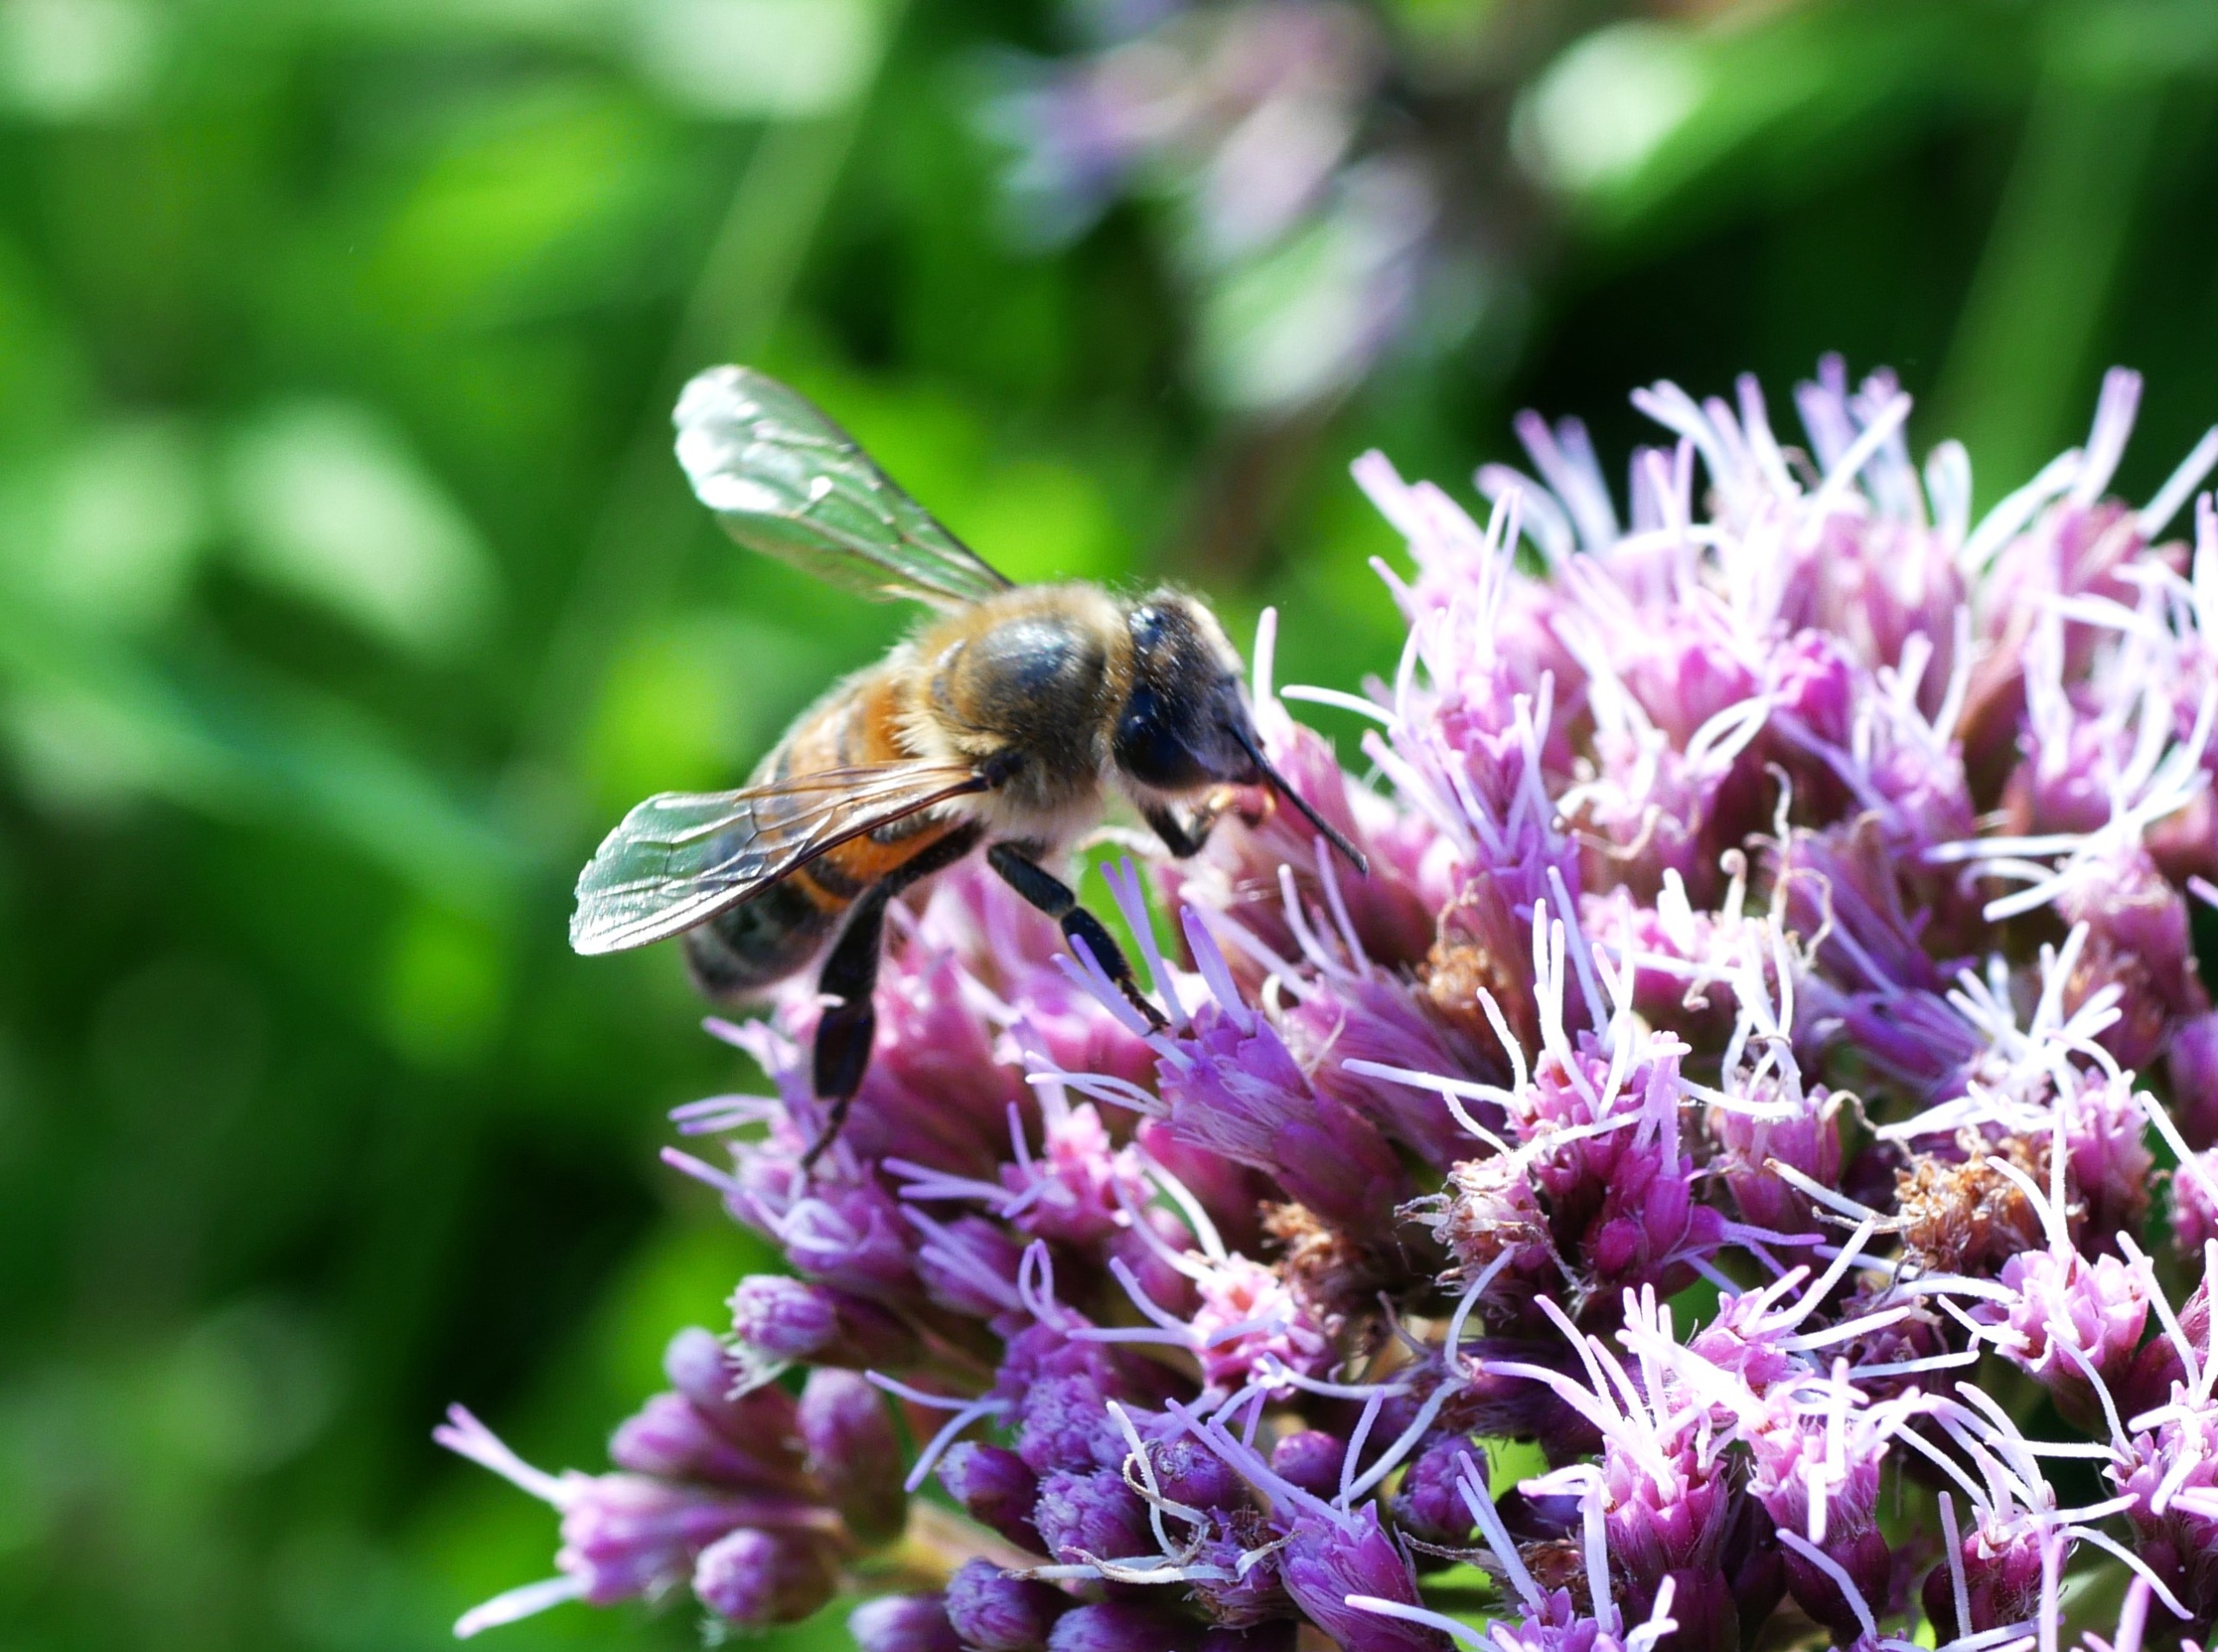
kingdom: Animalia
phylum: Arthropoda
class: Insecta
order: Hymenoptera
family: Apidae
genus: Apis
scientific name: Apis mellifera
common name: Honningbi
